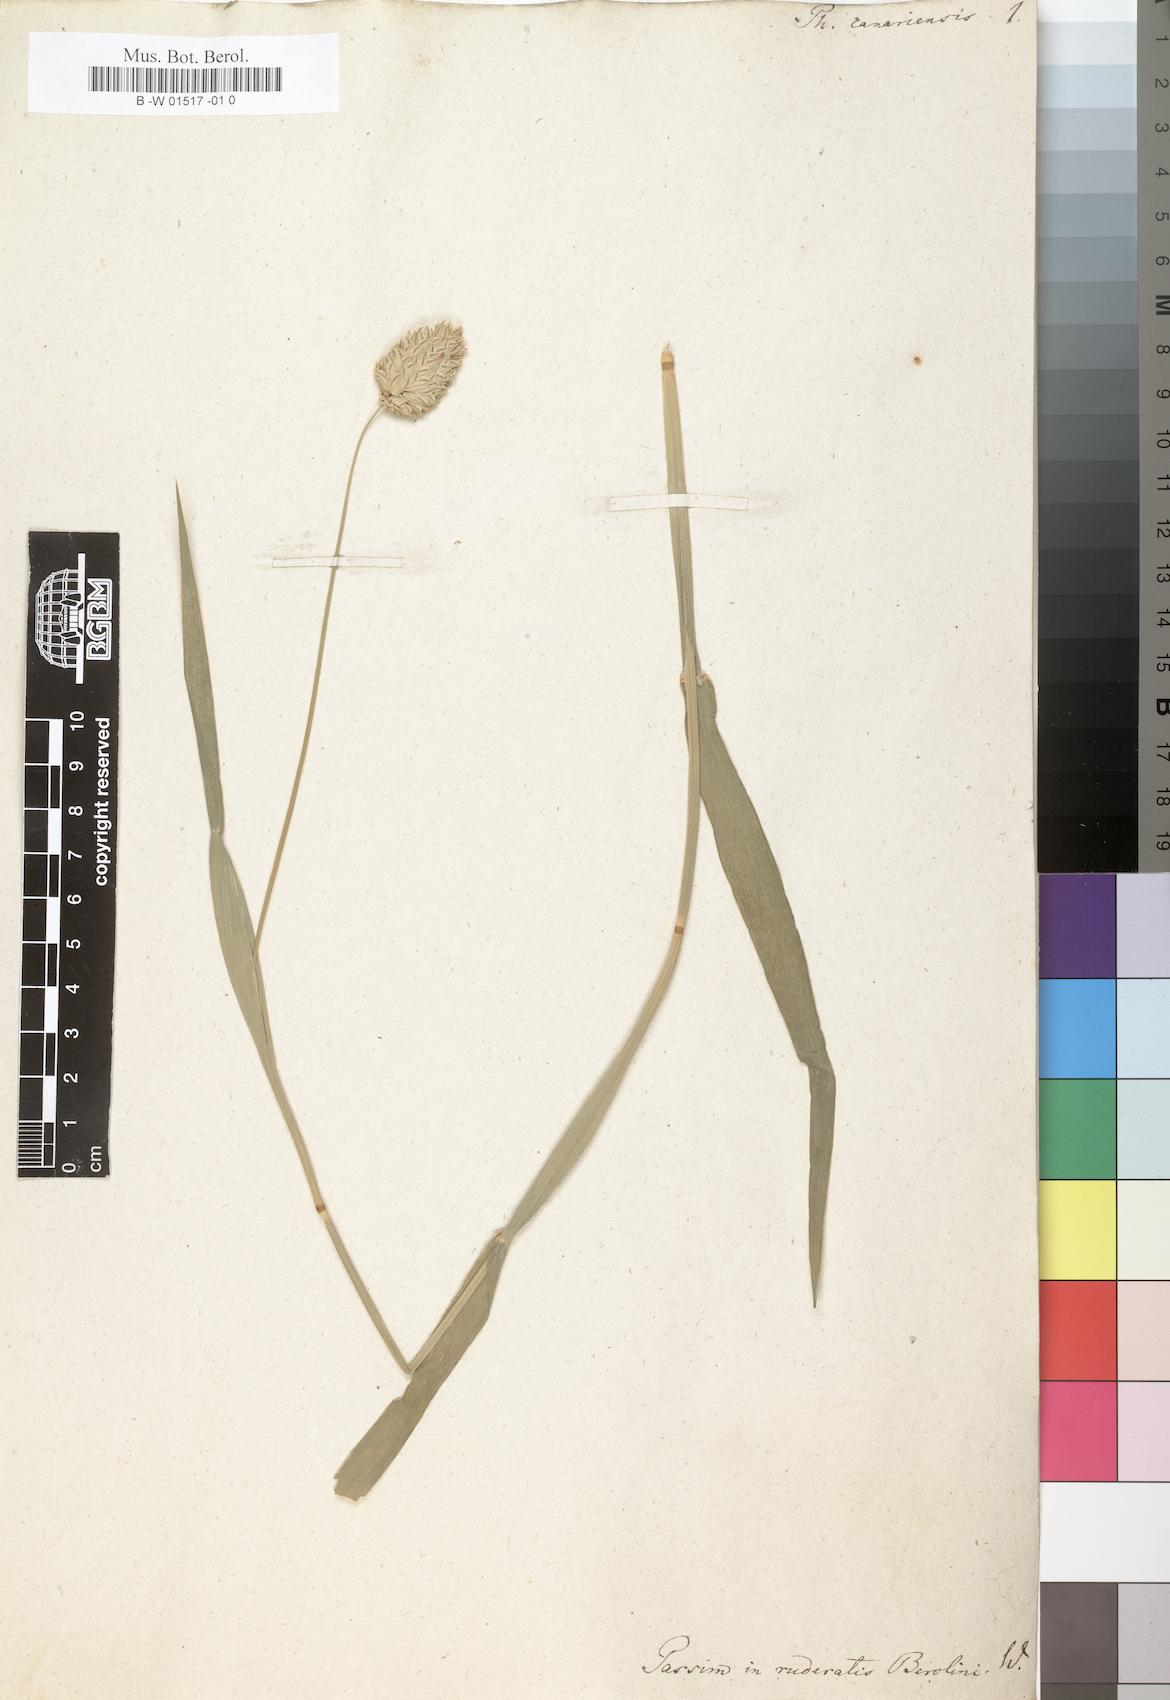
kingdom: Plantae
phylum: Tracheophyta
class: Liliopsida
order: Poales
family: Poaceae
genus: Phalaris
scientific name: Phalaris canariensis
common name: Annual canarygrass
